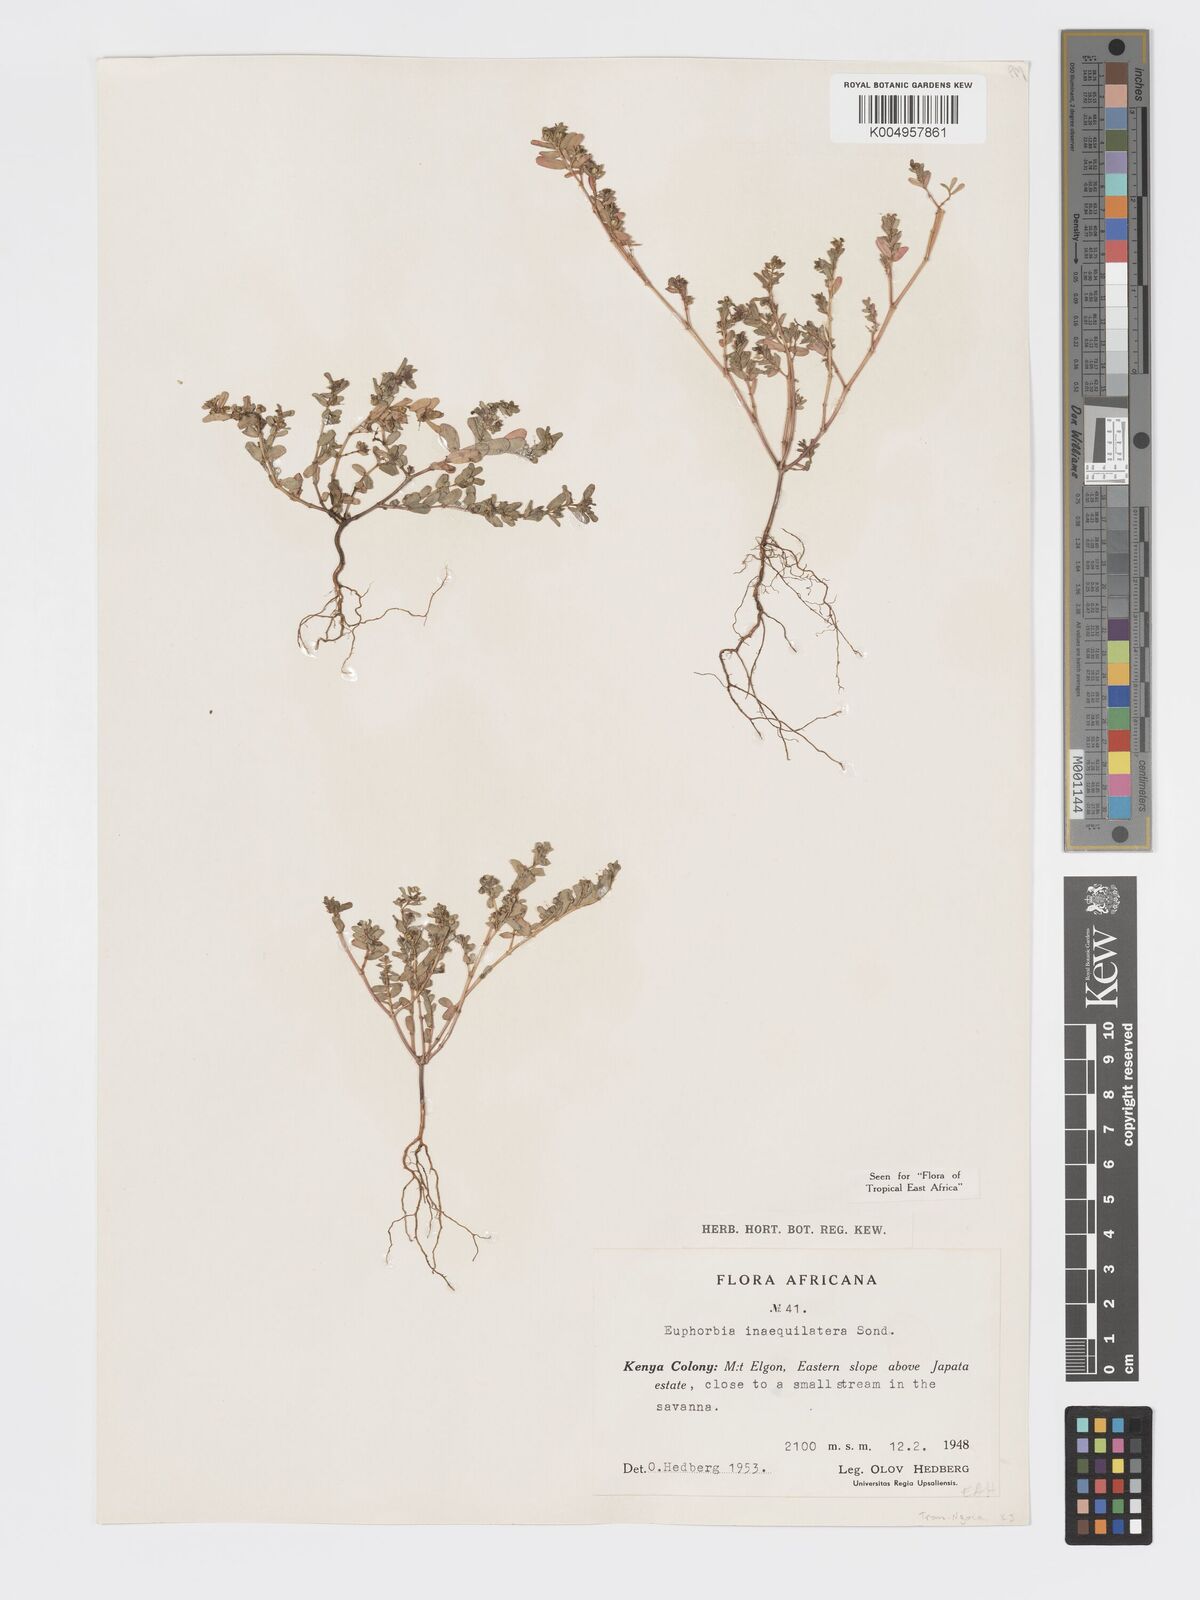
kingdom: Plantae
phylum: Tracheophyta
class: Magnoliopsida
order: Malpighiales
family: Euphorbiaceae
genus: Euphorbia
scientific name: Euphorbia inaequilatera
